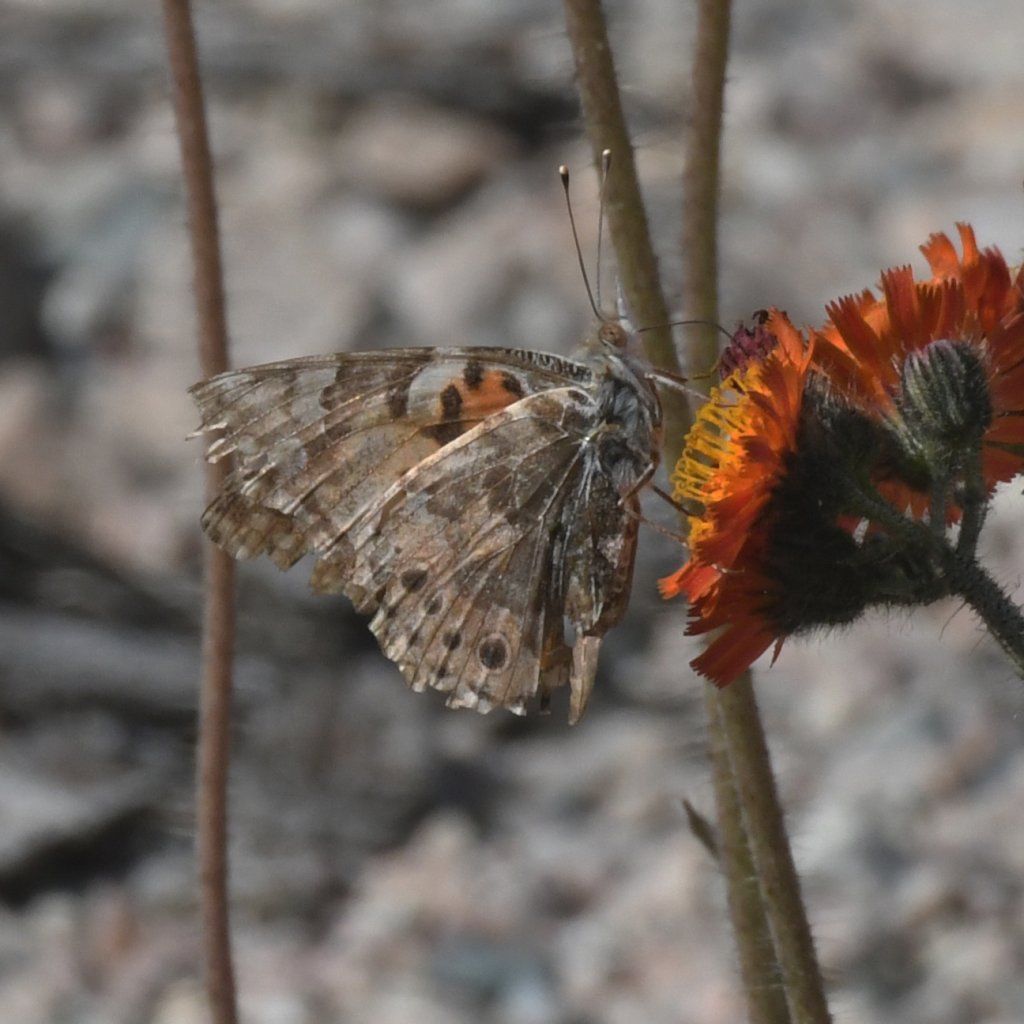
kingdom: Animalia
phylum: Arthropoda
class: Insecta
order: Lepidoptera
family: Nymphalidae
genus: Vanessa
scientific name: Vanessa cardui
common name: Painted Lady
